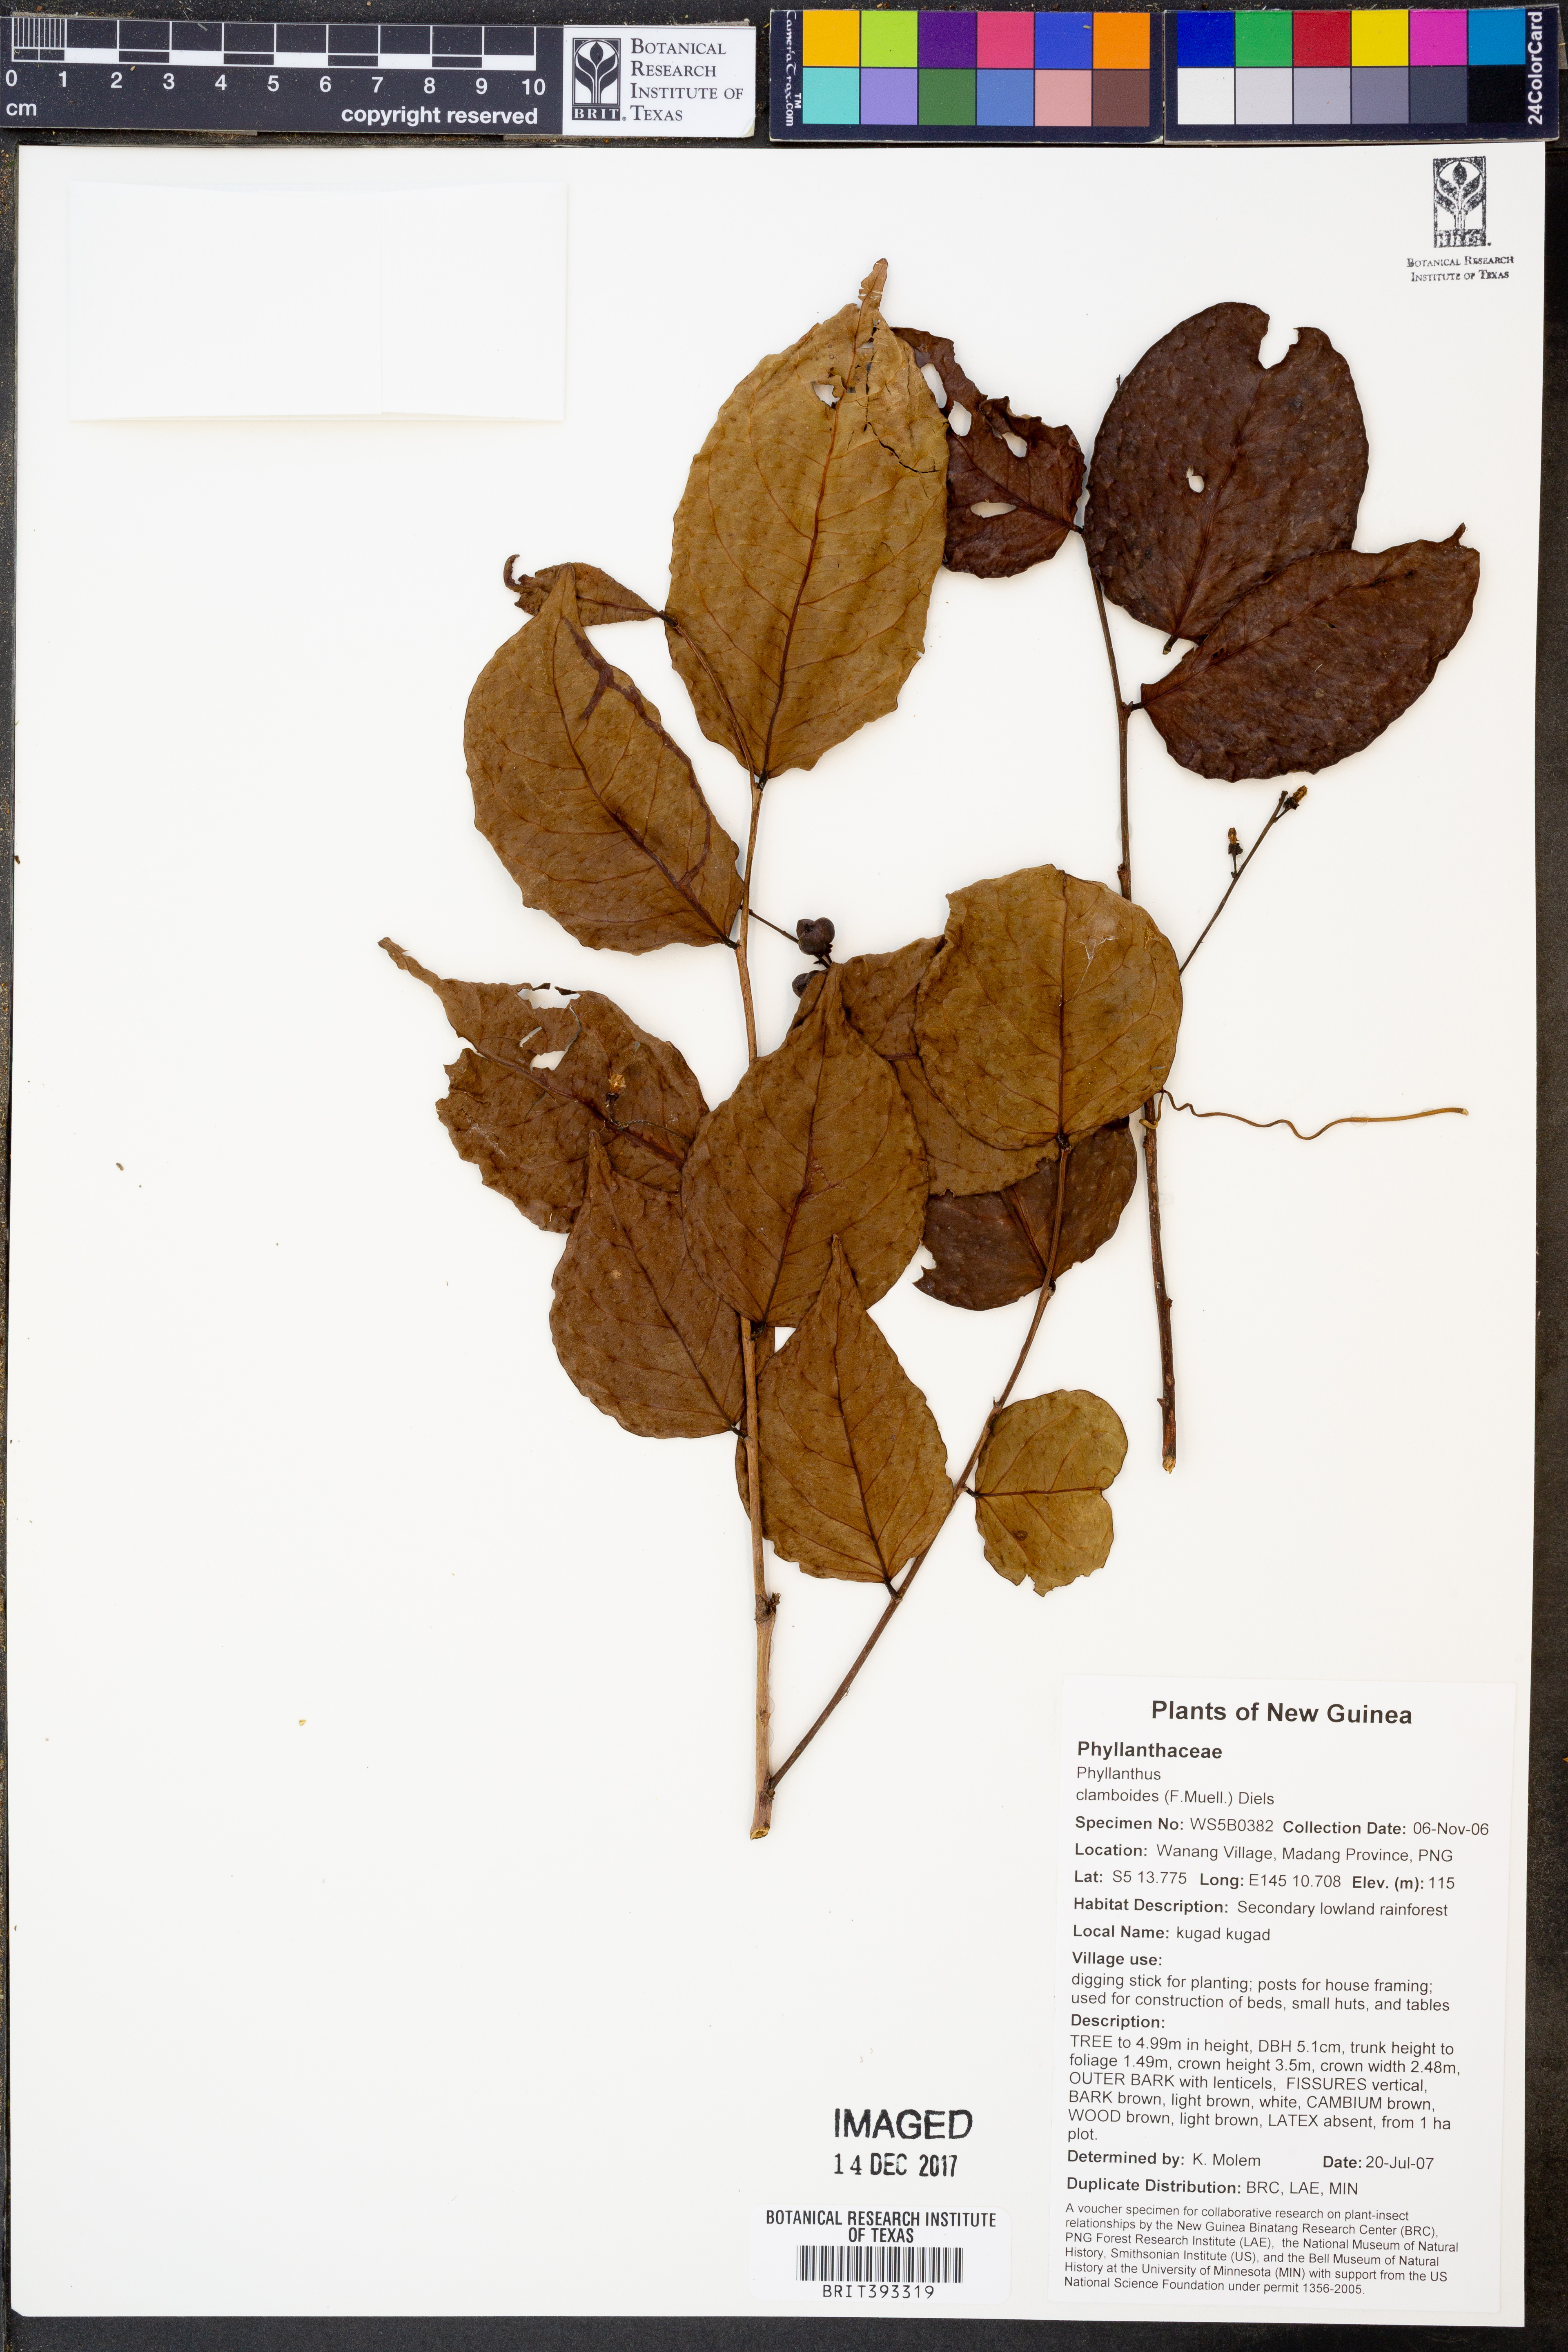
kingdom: Plantae
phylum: Tracheophyta
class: Magnoliopsida
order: Malpighiales
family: Phyllanthaceae
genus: Phyllanthus
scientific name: Phyllanthus clamboides
